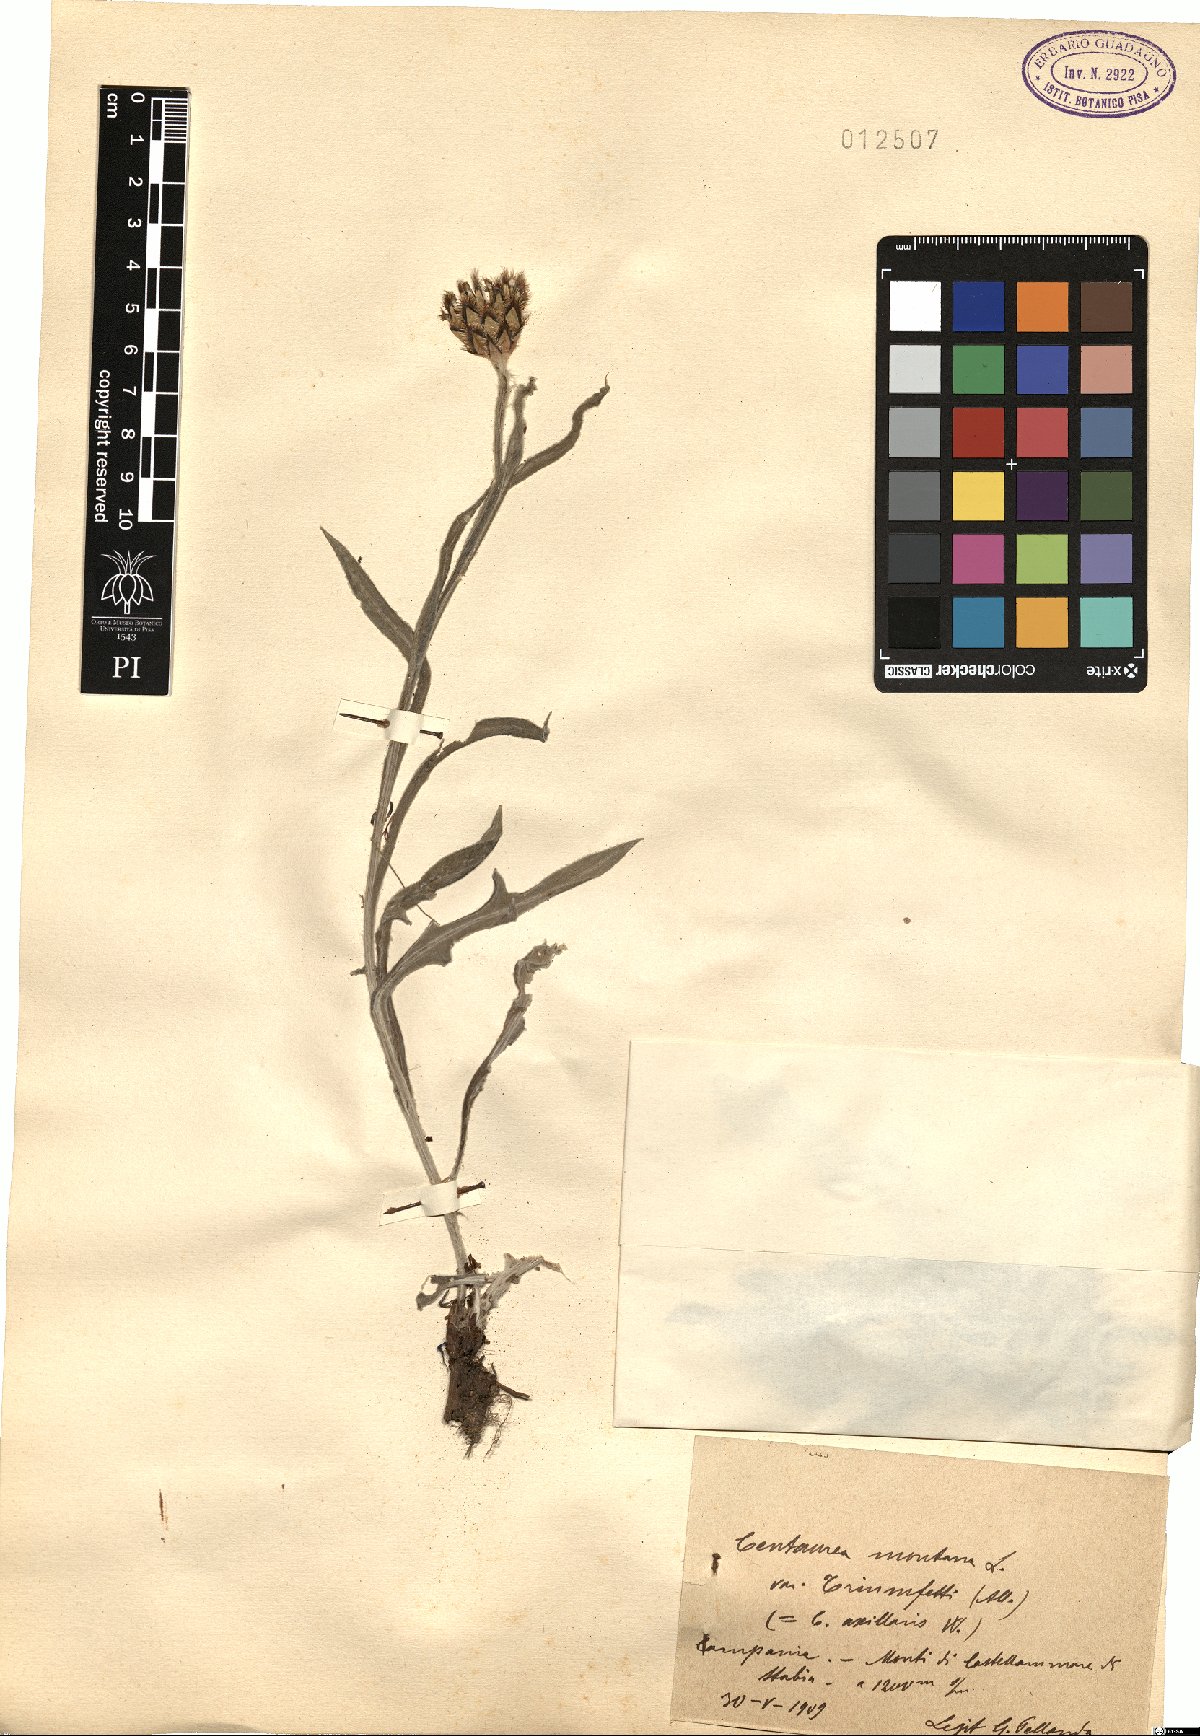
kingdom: Plantae
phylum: Tracheophyta
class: Magnoliopsida
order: Asterales
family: Asteraceae
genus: Centaurea
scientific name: Centaurea montana
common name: Perennial cornflower
